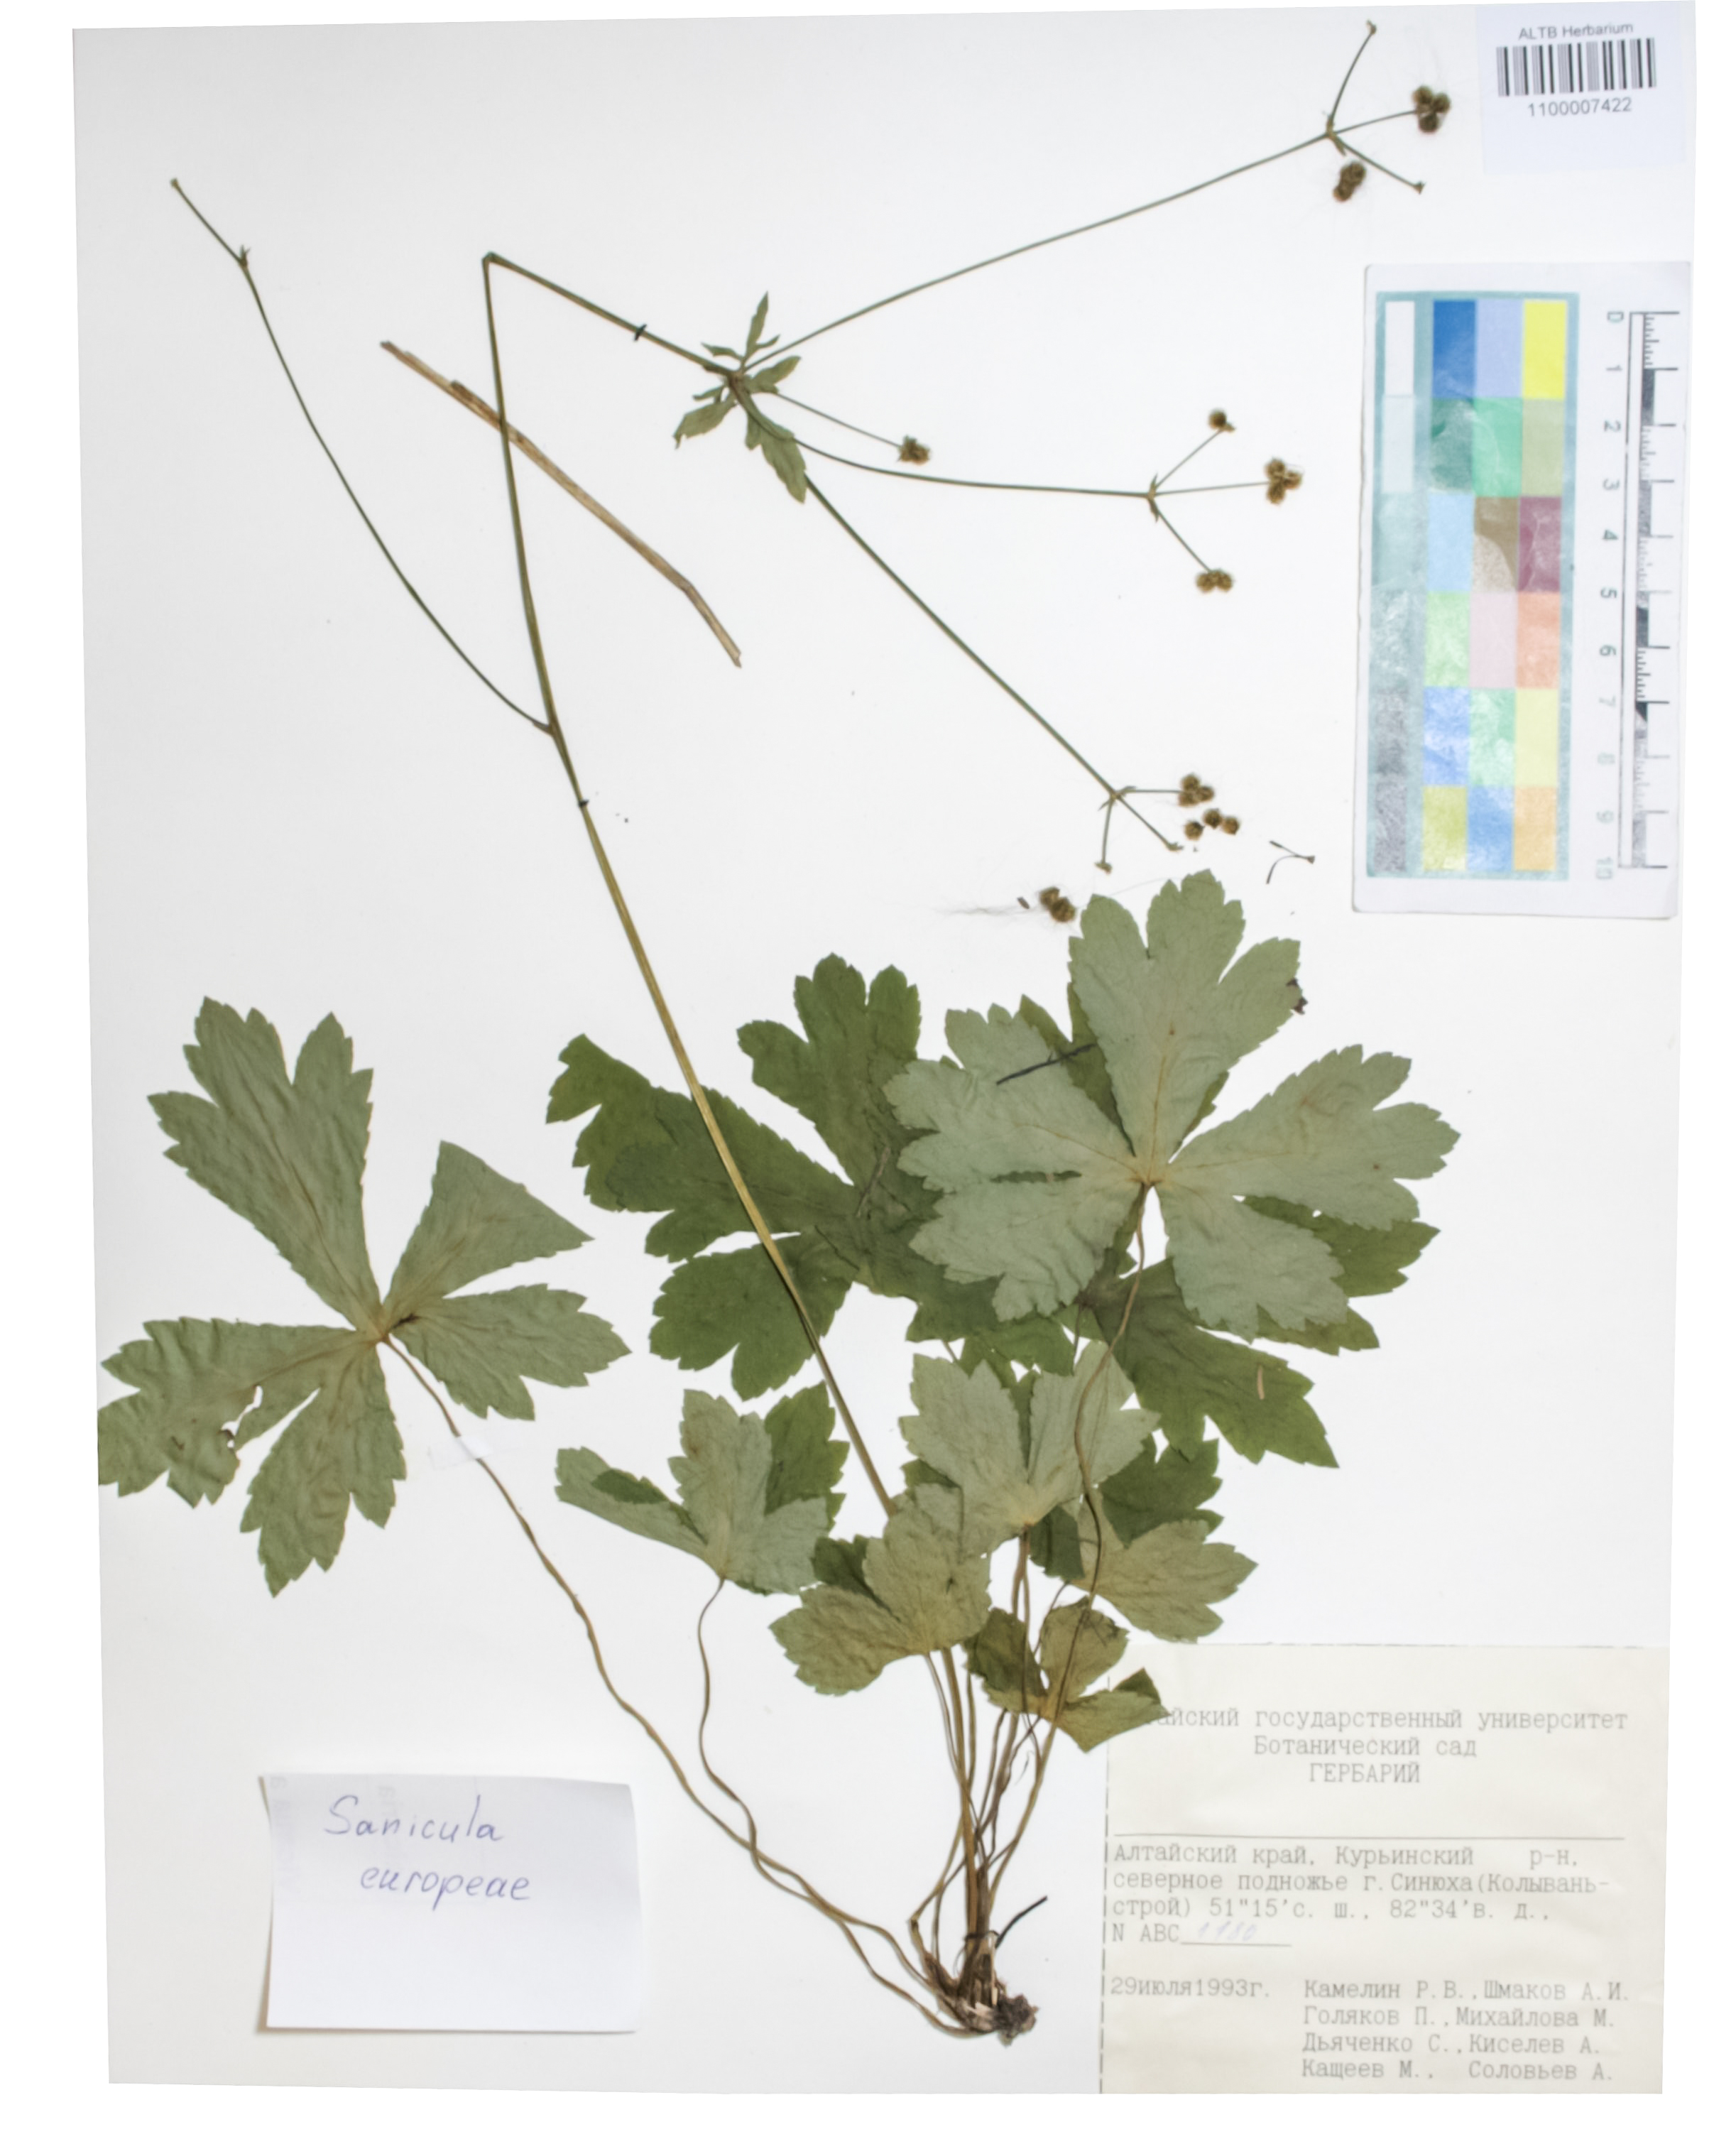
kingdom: Plantae
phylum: Tracheophyta
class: Magnoliopsida
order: Apiales
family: Apiaceae
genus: Sanicula
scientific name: Sanicula europaea
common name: Sanicle
